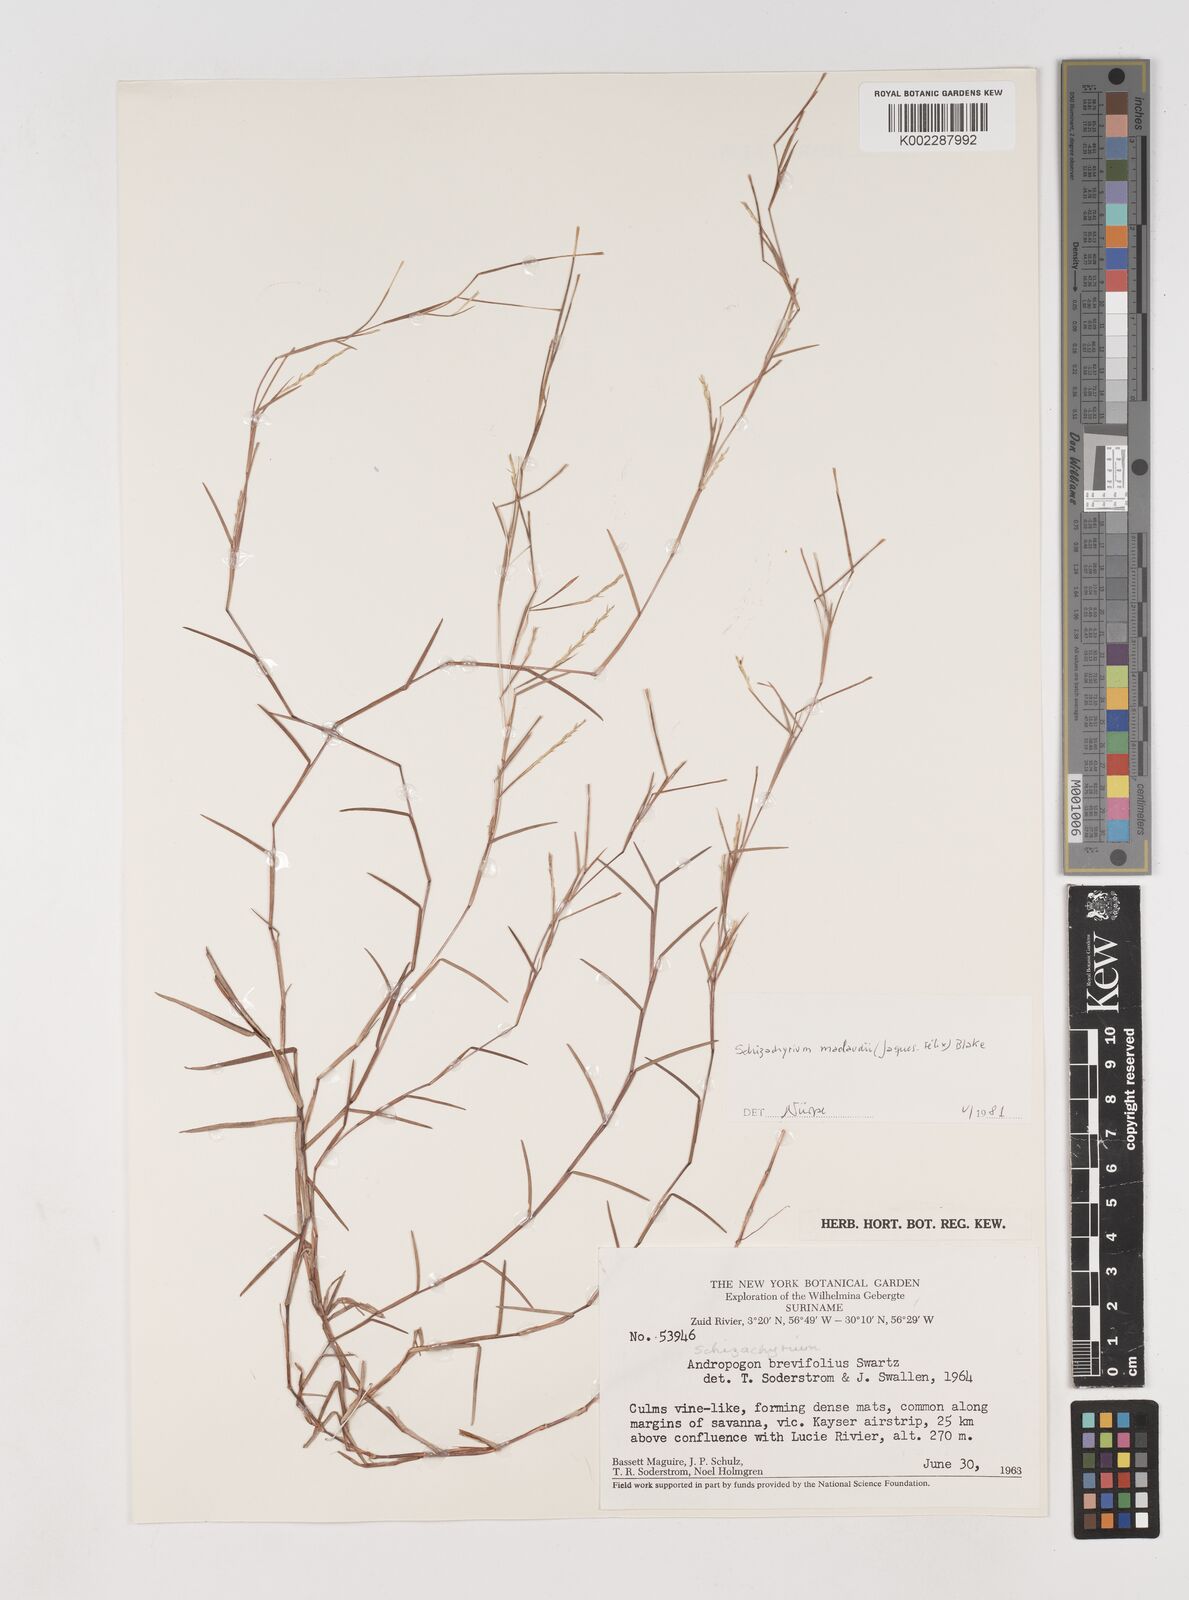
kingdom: Plantae
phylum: Tracheophyta
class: Liliopsida
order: Poales
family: Poaceae
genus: Schizachyrium
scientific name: Schizachyrium maclaudii
